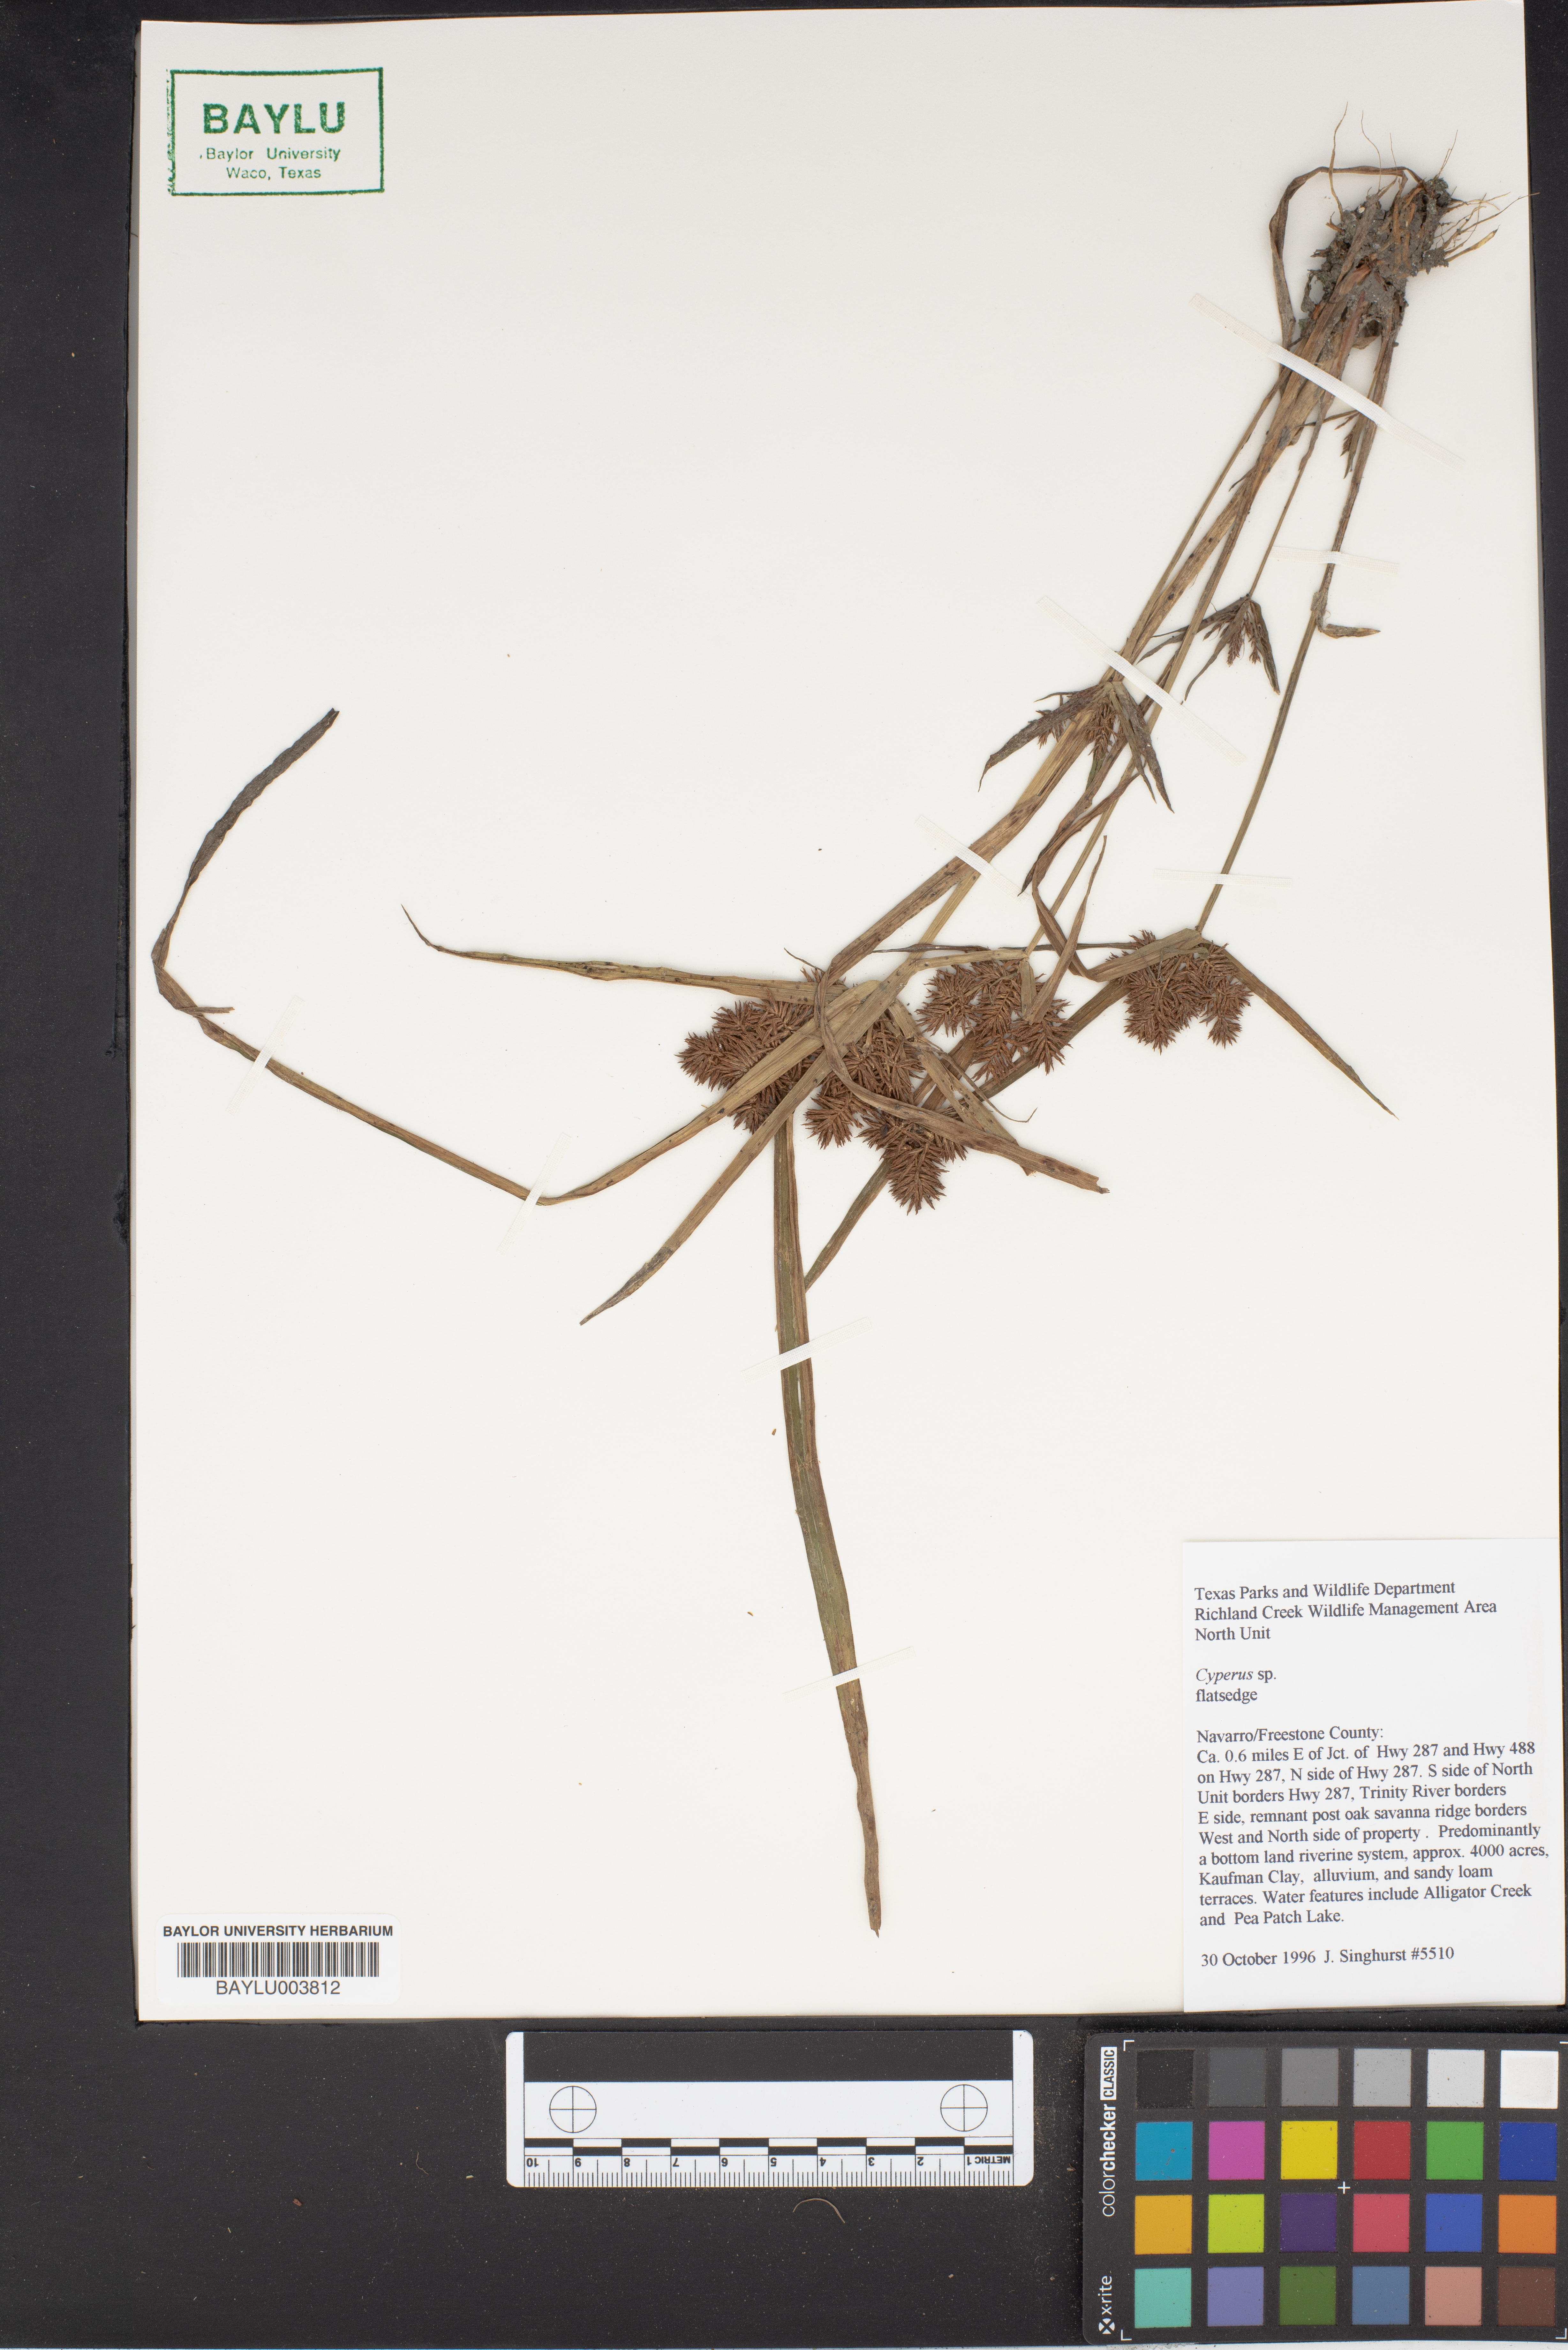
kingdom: Plantae
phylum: Tracheophyta
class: Liliopsida
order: Poales
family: Cyperaceae
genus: Cyperus
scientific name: Cyperus
